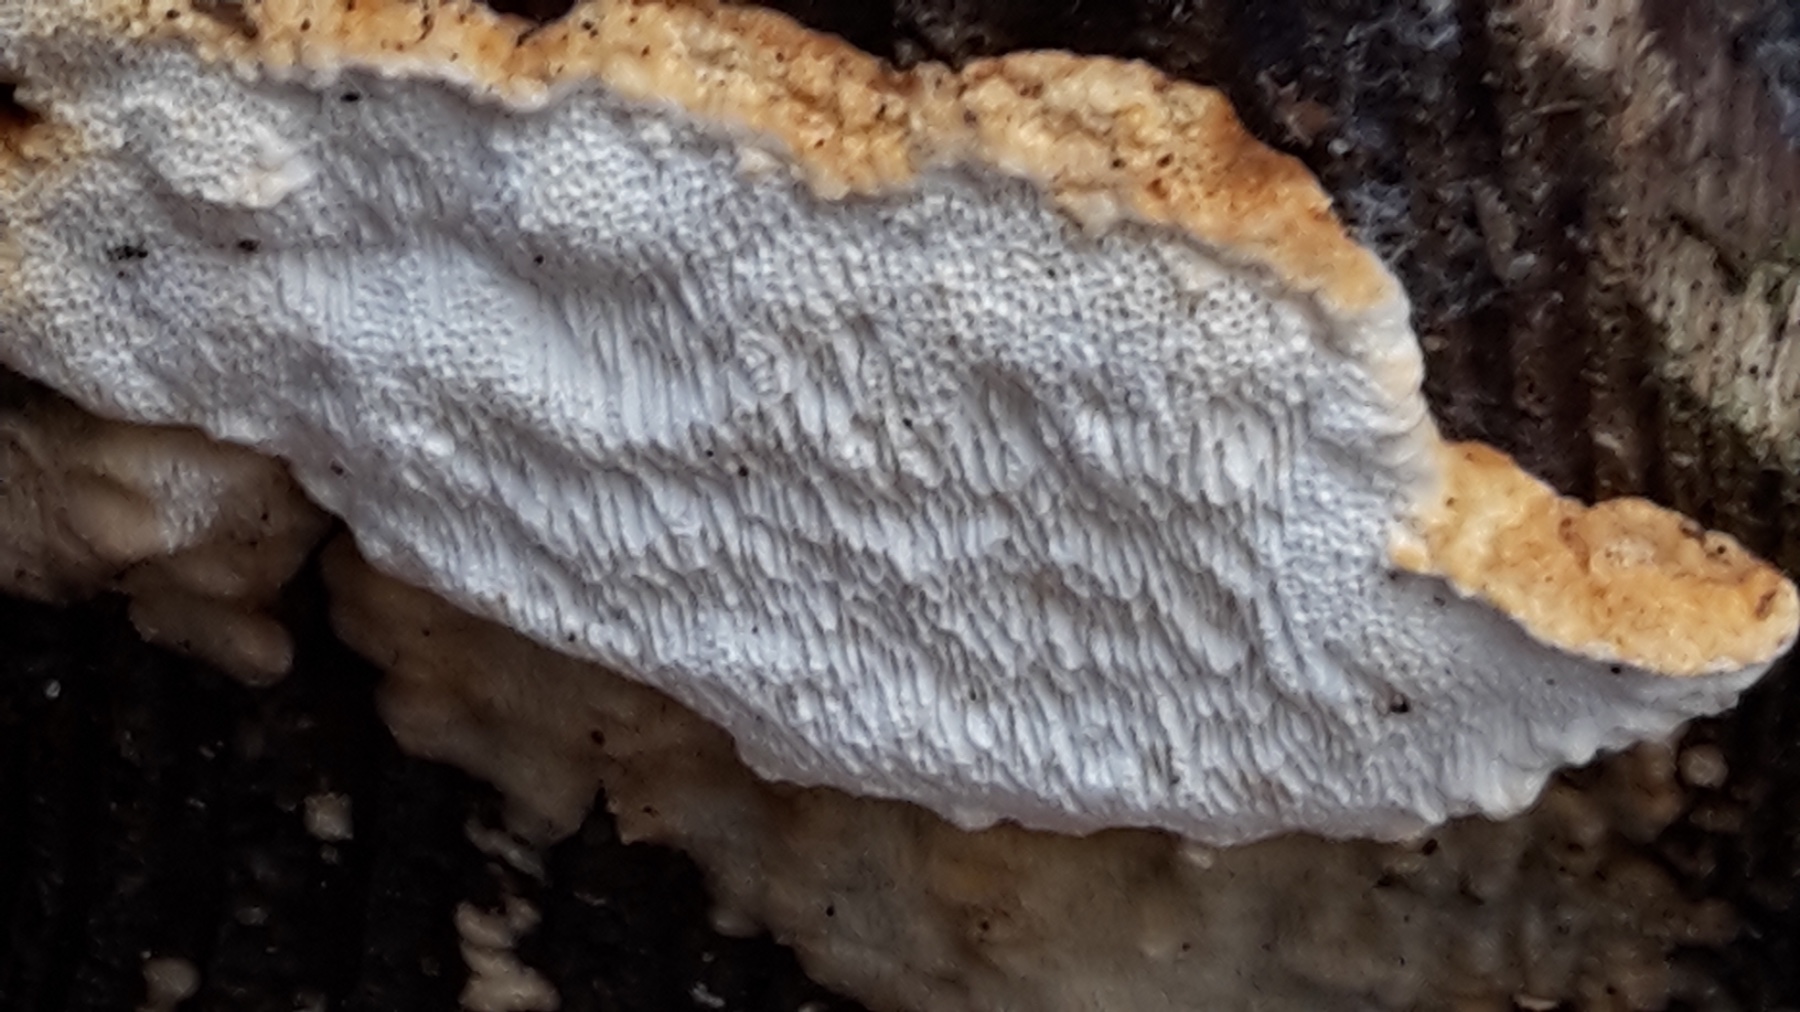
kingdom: Fungi
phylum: Basidiomycota
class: Agaricomycetes
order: Russulales
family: Bondarzewiaceae
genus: Heterobasidion
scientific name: Heterobasidion annosum
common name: almindelig rodfordærver
